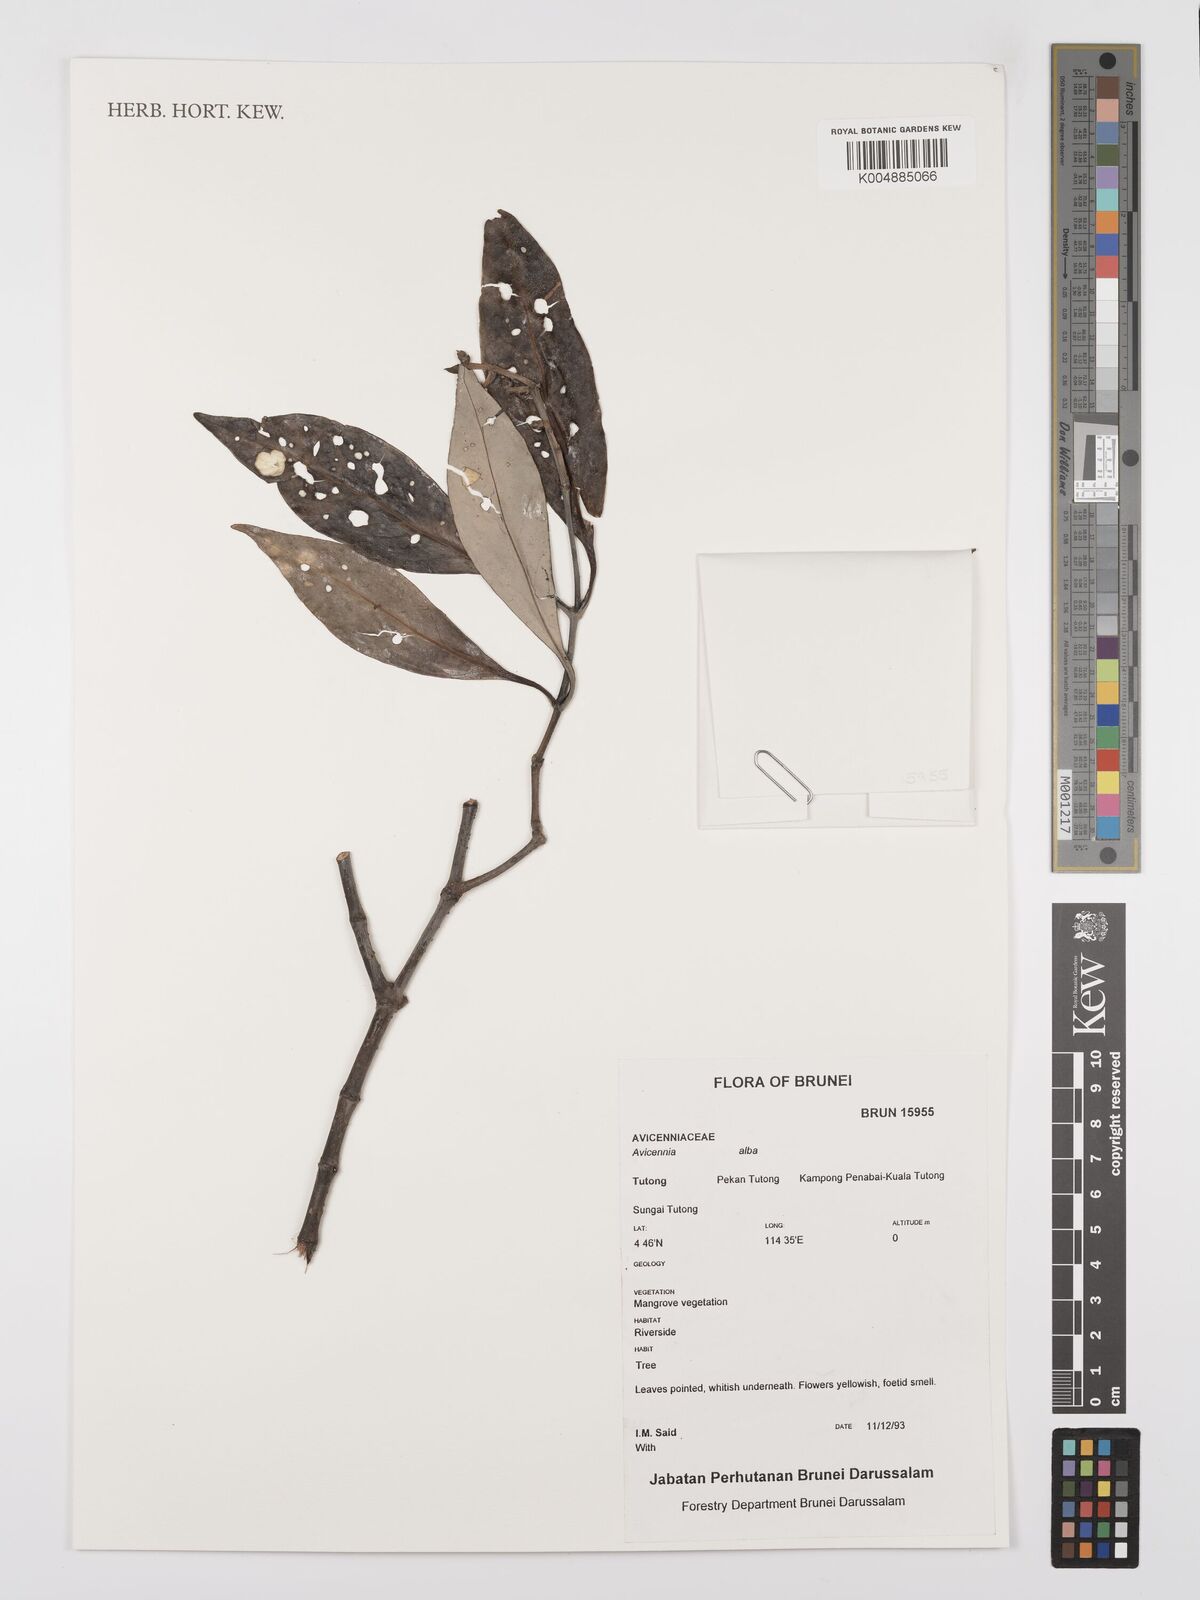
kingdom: Plantae
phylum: Tracheophyta
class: Magnoliopsida
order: Lamiales
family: Acanthaceae
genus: Avicennia
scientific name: Avicennia alba
